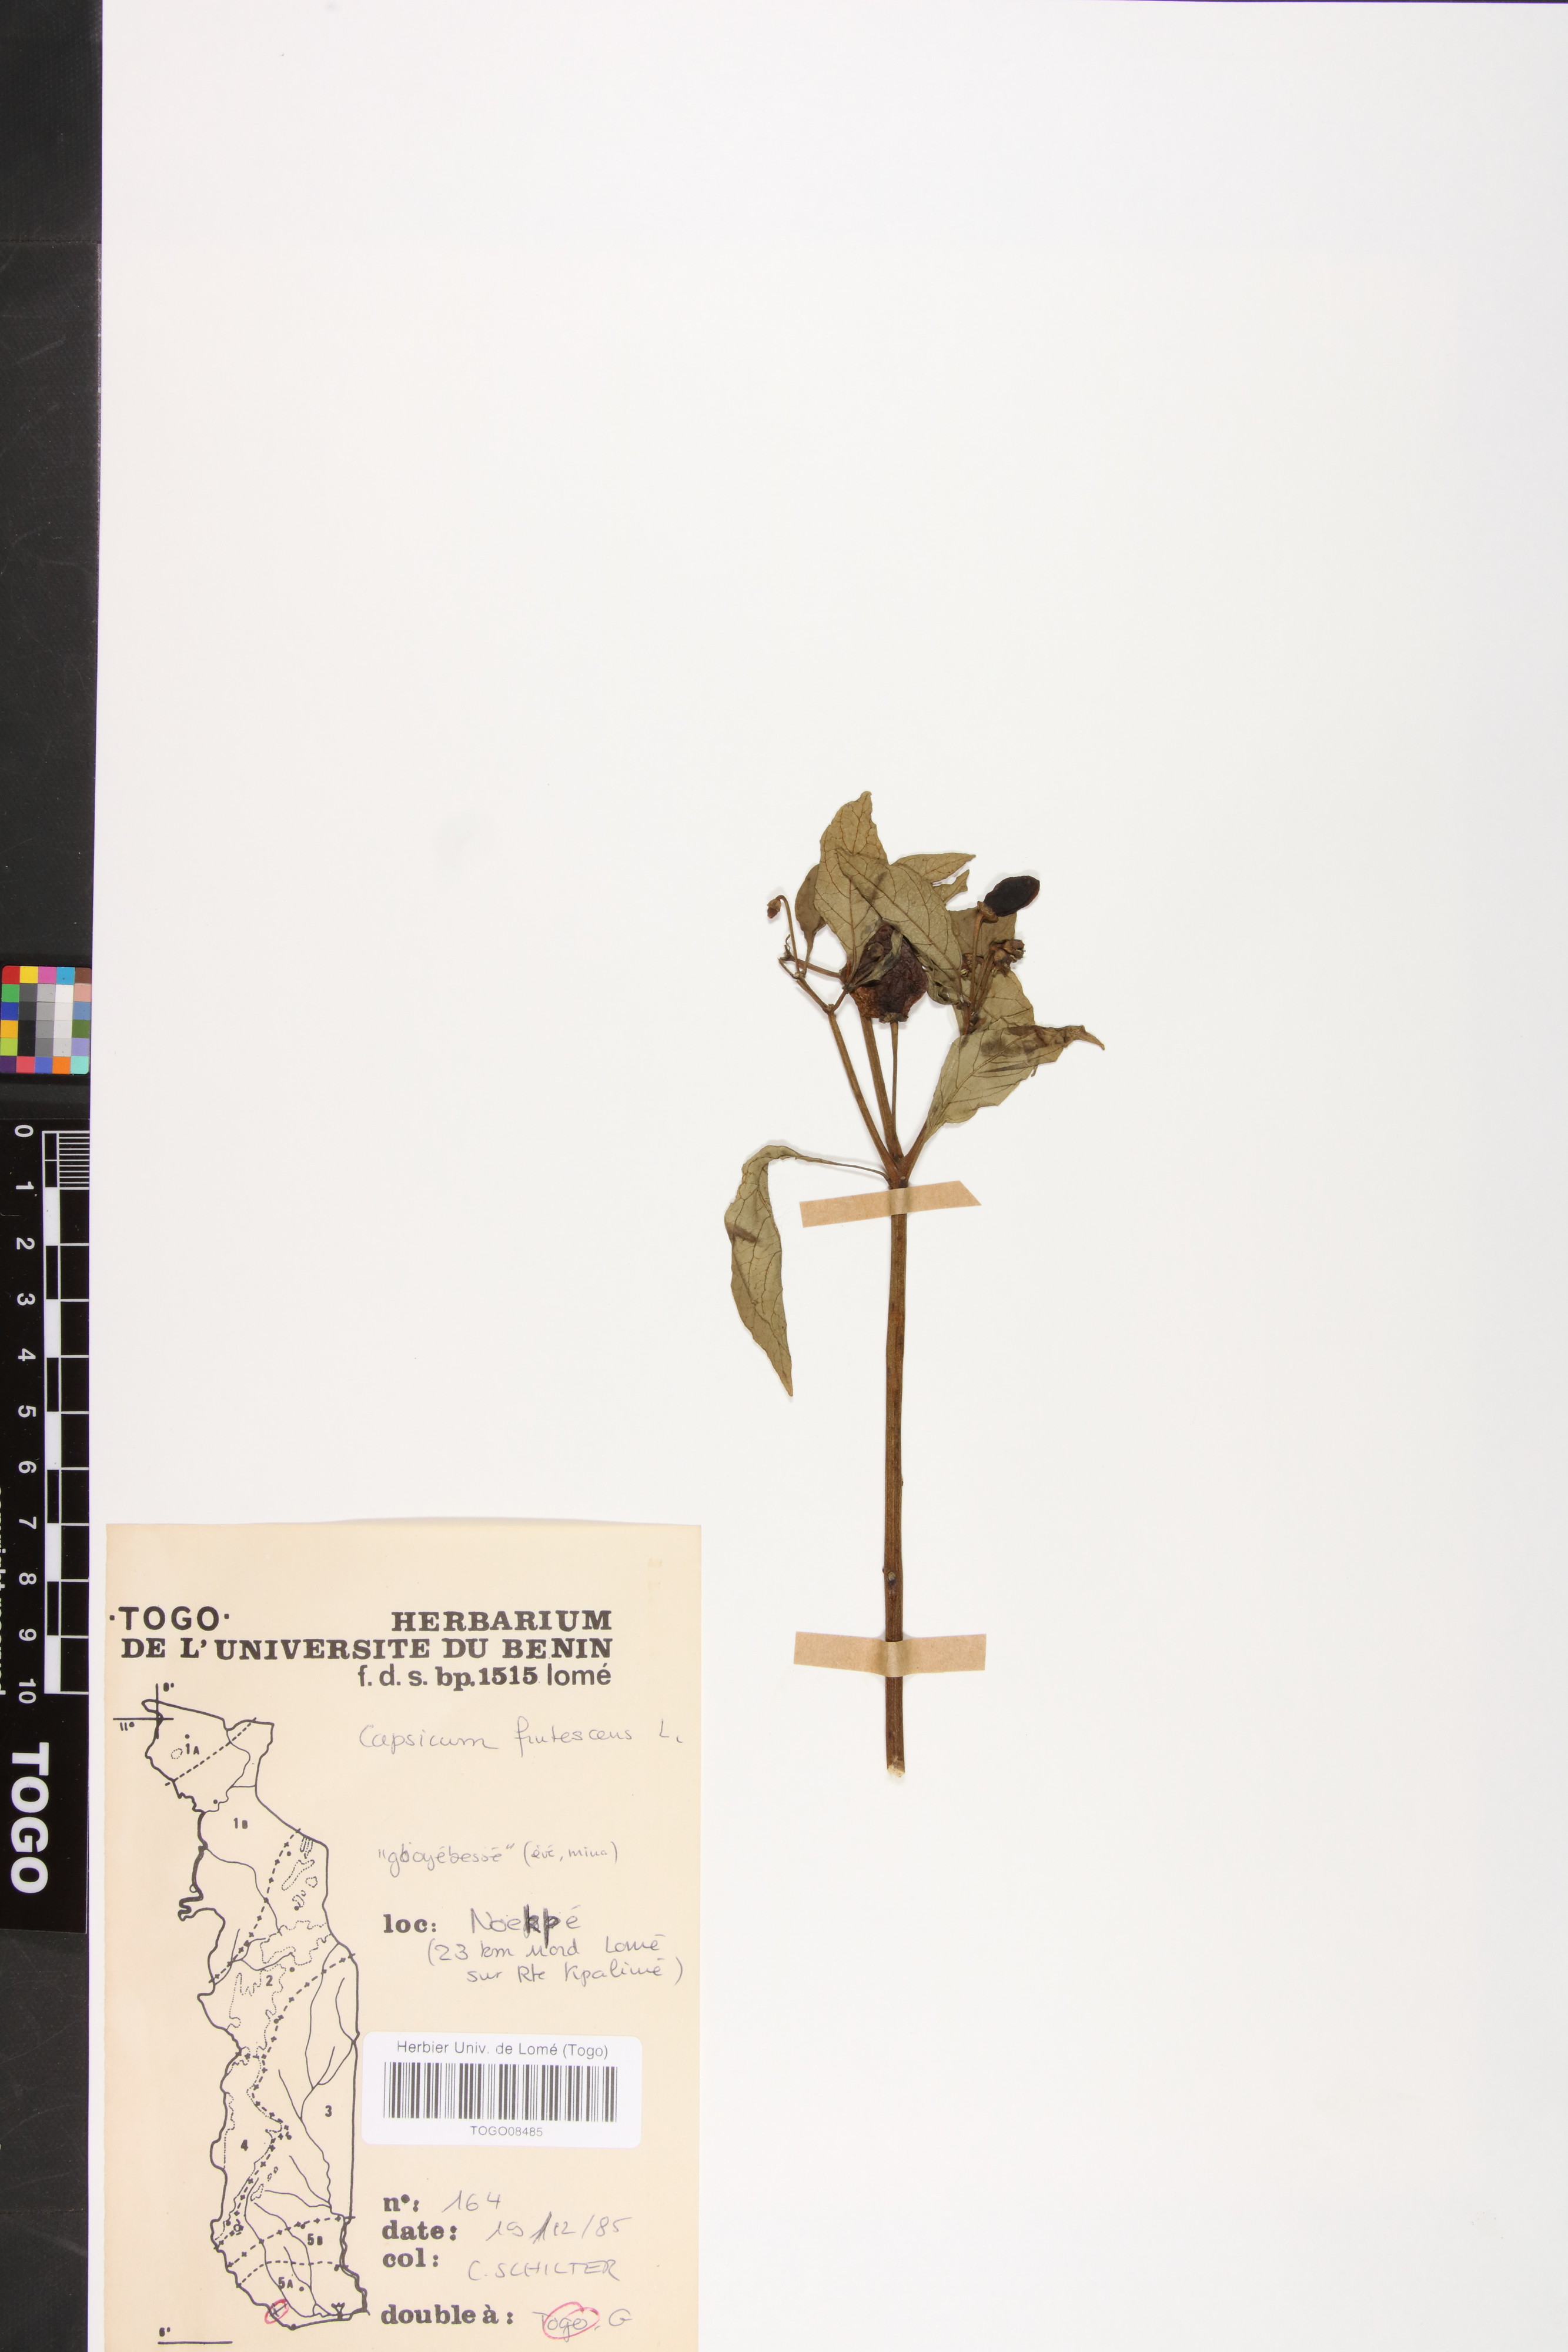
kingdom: Plantae
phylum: Tracheophyta
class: Magnoliopsida
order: Solanales
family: Solanaceae
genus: Capsicum
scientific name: Capsicum frutescens
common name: Bird pepper
